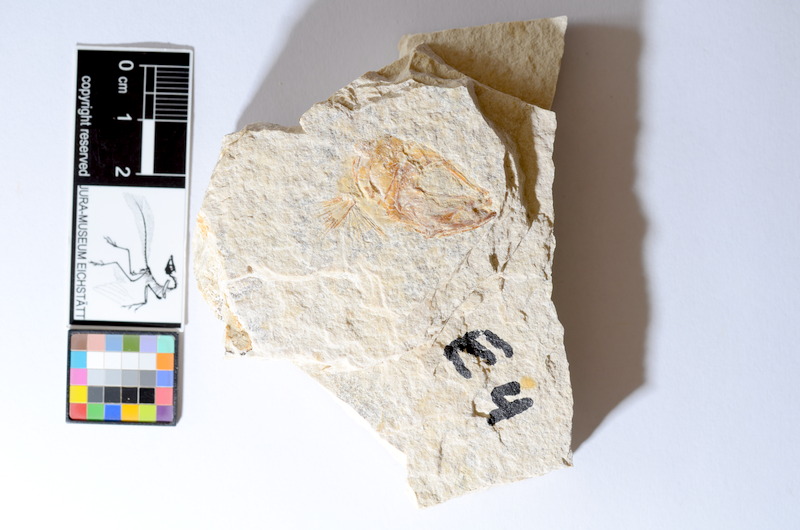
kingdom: Animalia
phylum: Chordata
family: Ascalaboidae
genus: Tharsis
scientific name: Tharsis dubius
